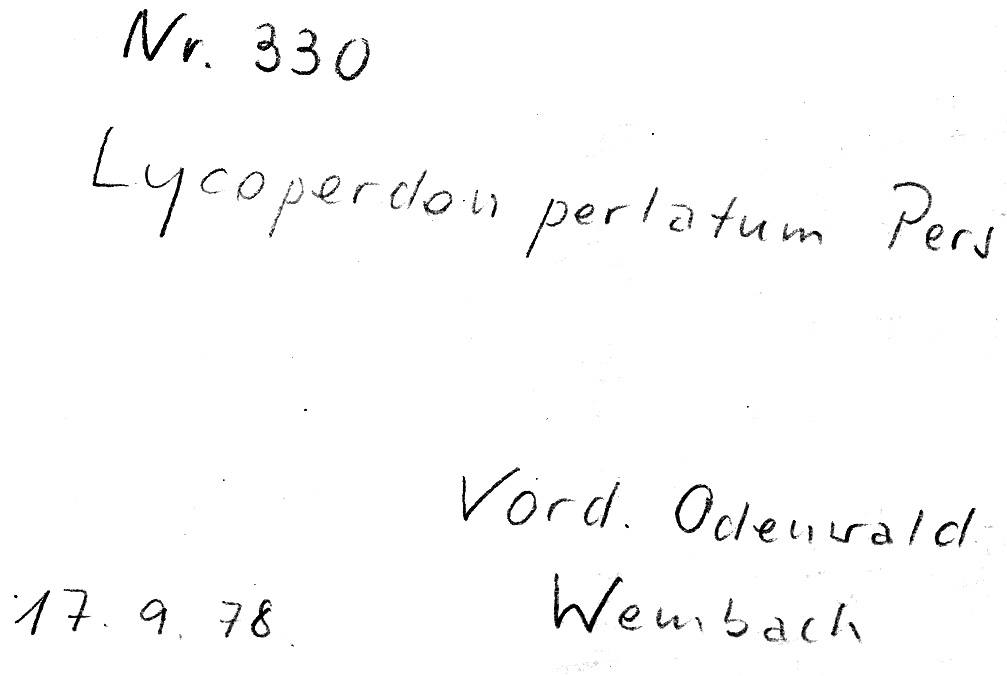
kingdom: Fungi
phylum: Basidiomycota
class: Agaricomycetes
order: Agaricales
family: Lycoperdaceae
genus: Lycoperdon
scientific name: Lycoperdon perlatum
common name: Common puffball
